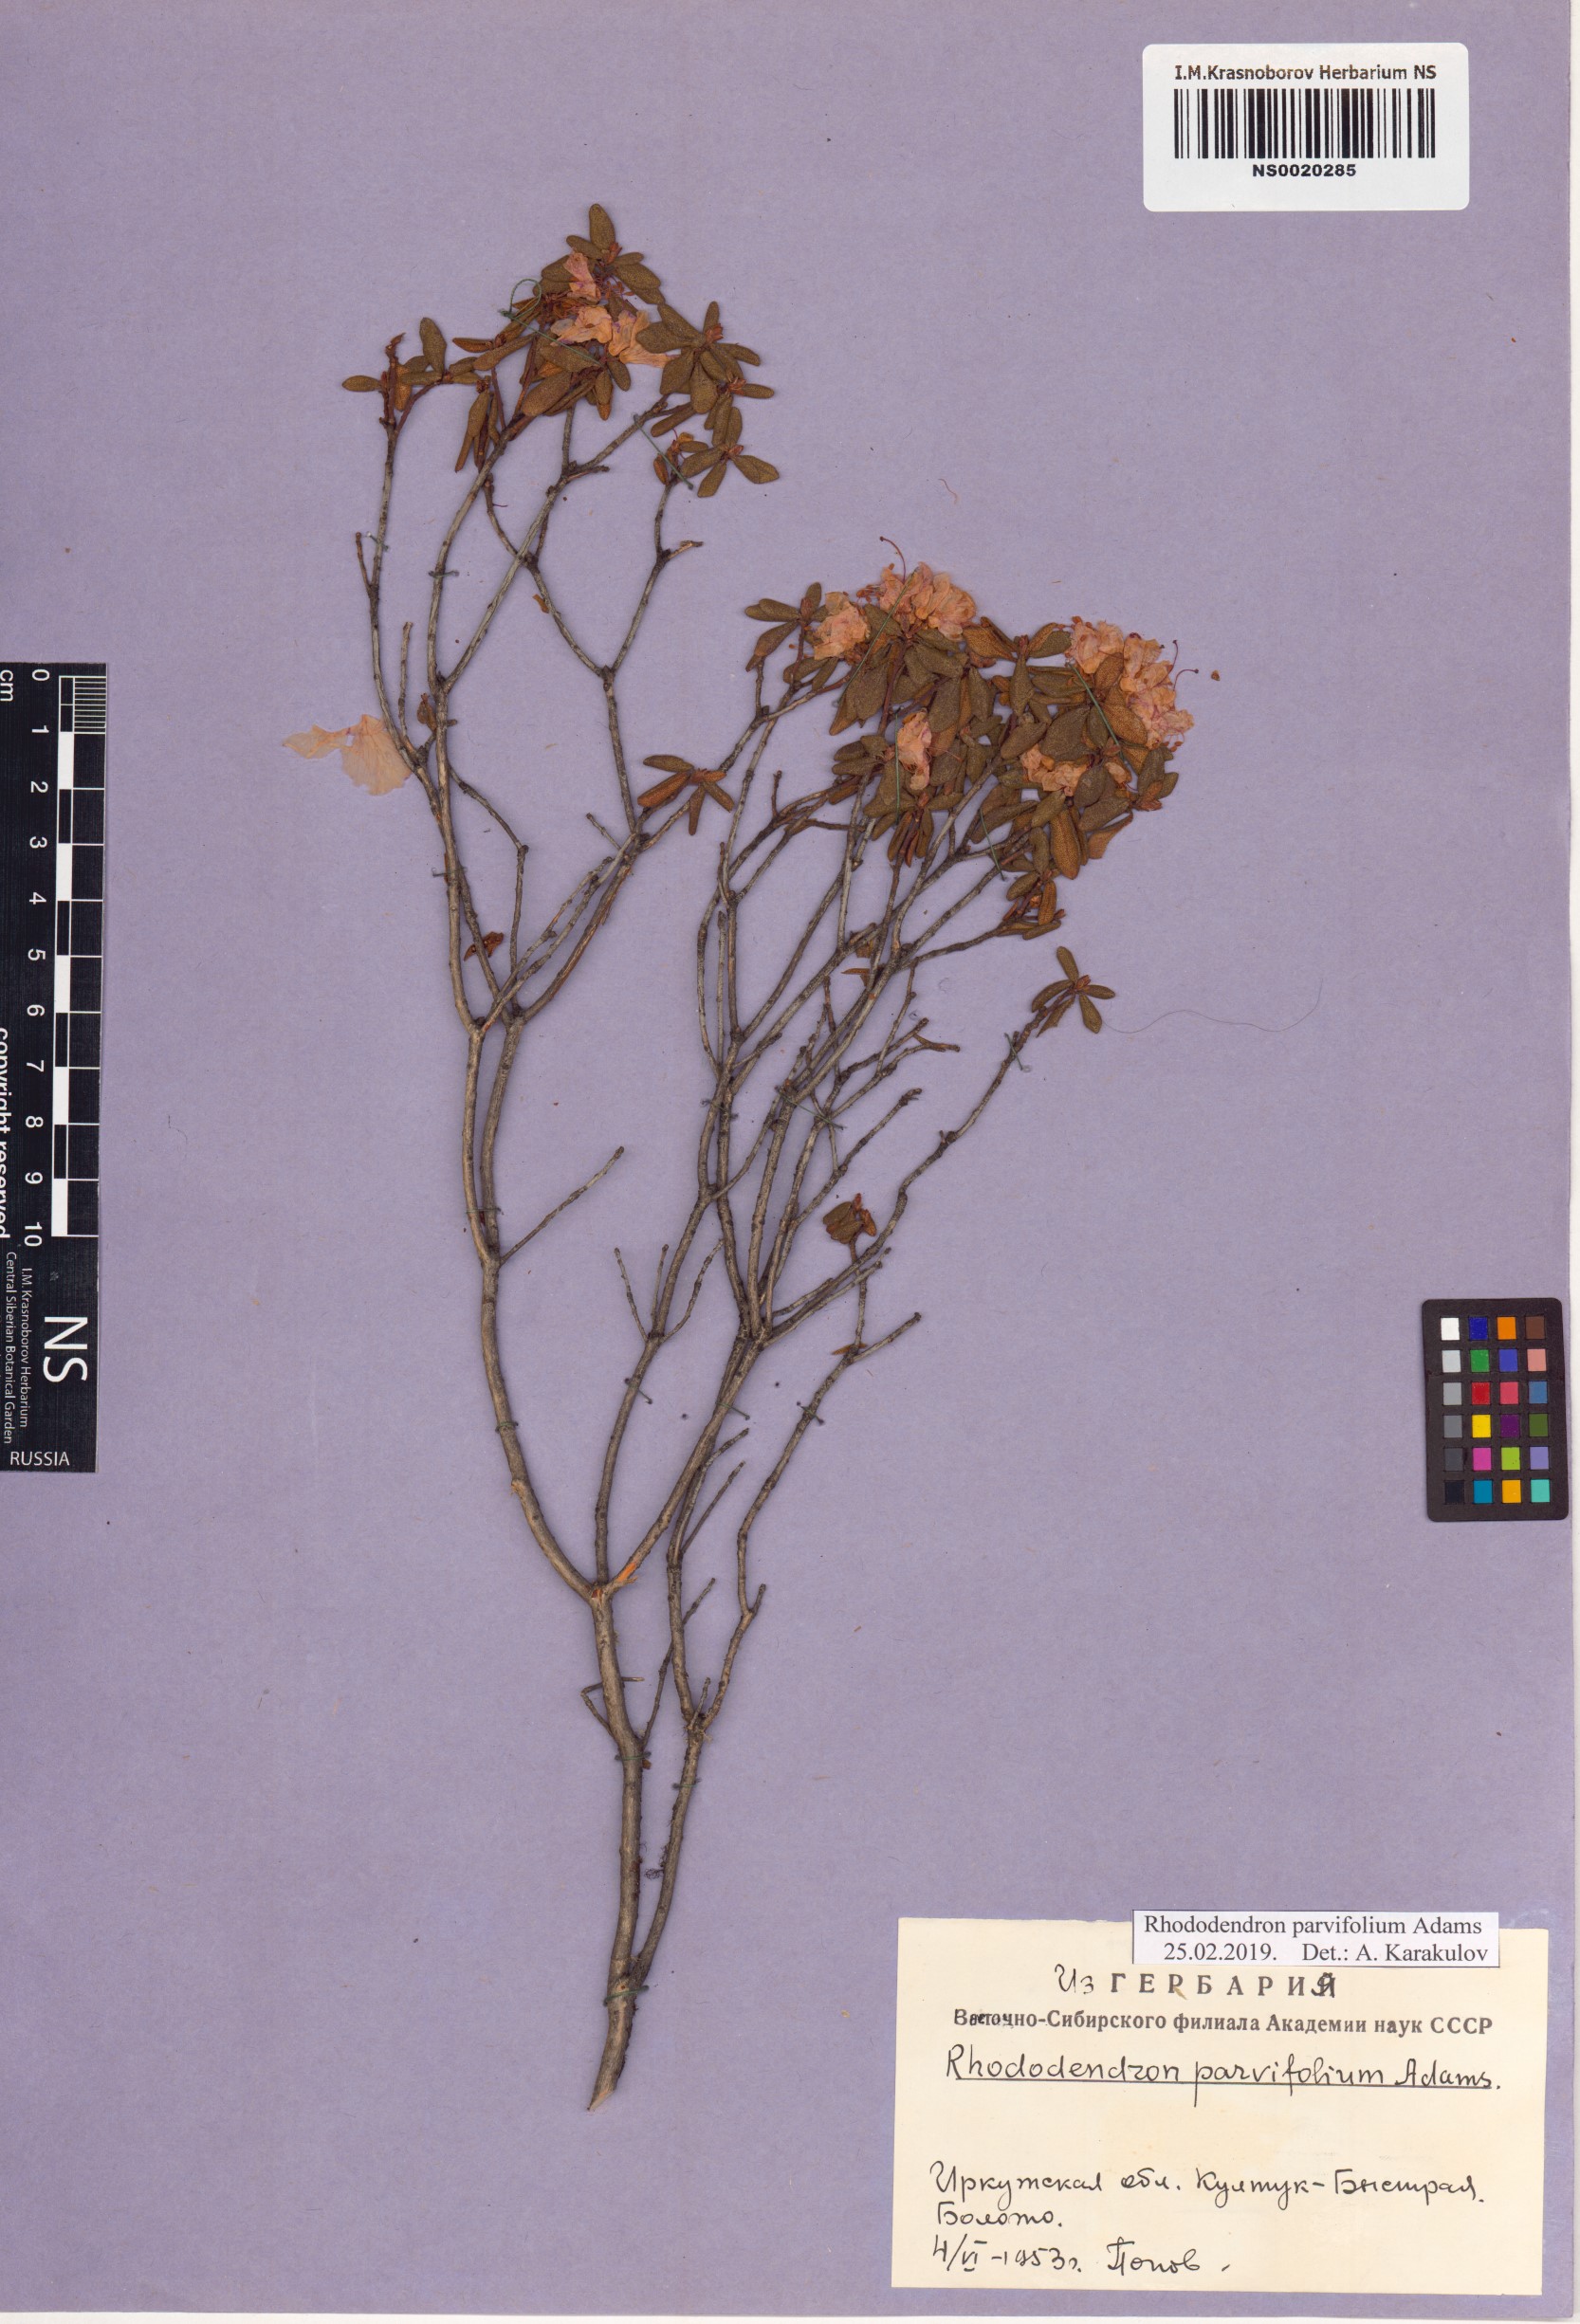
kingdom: Plantae
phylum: Tracheophyta
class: Magnoliopsida
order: Ericales
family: Ericaceae
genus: Rhododendron
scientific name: Rhododendron parvifolium
